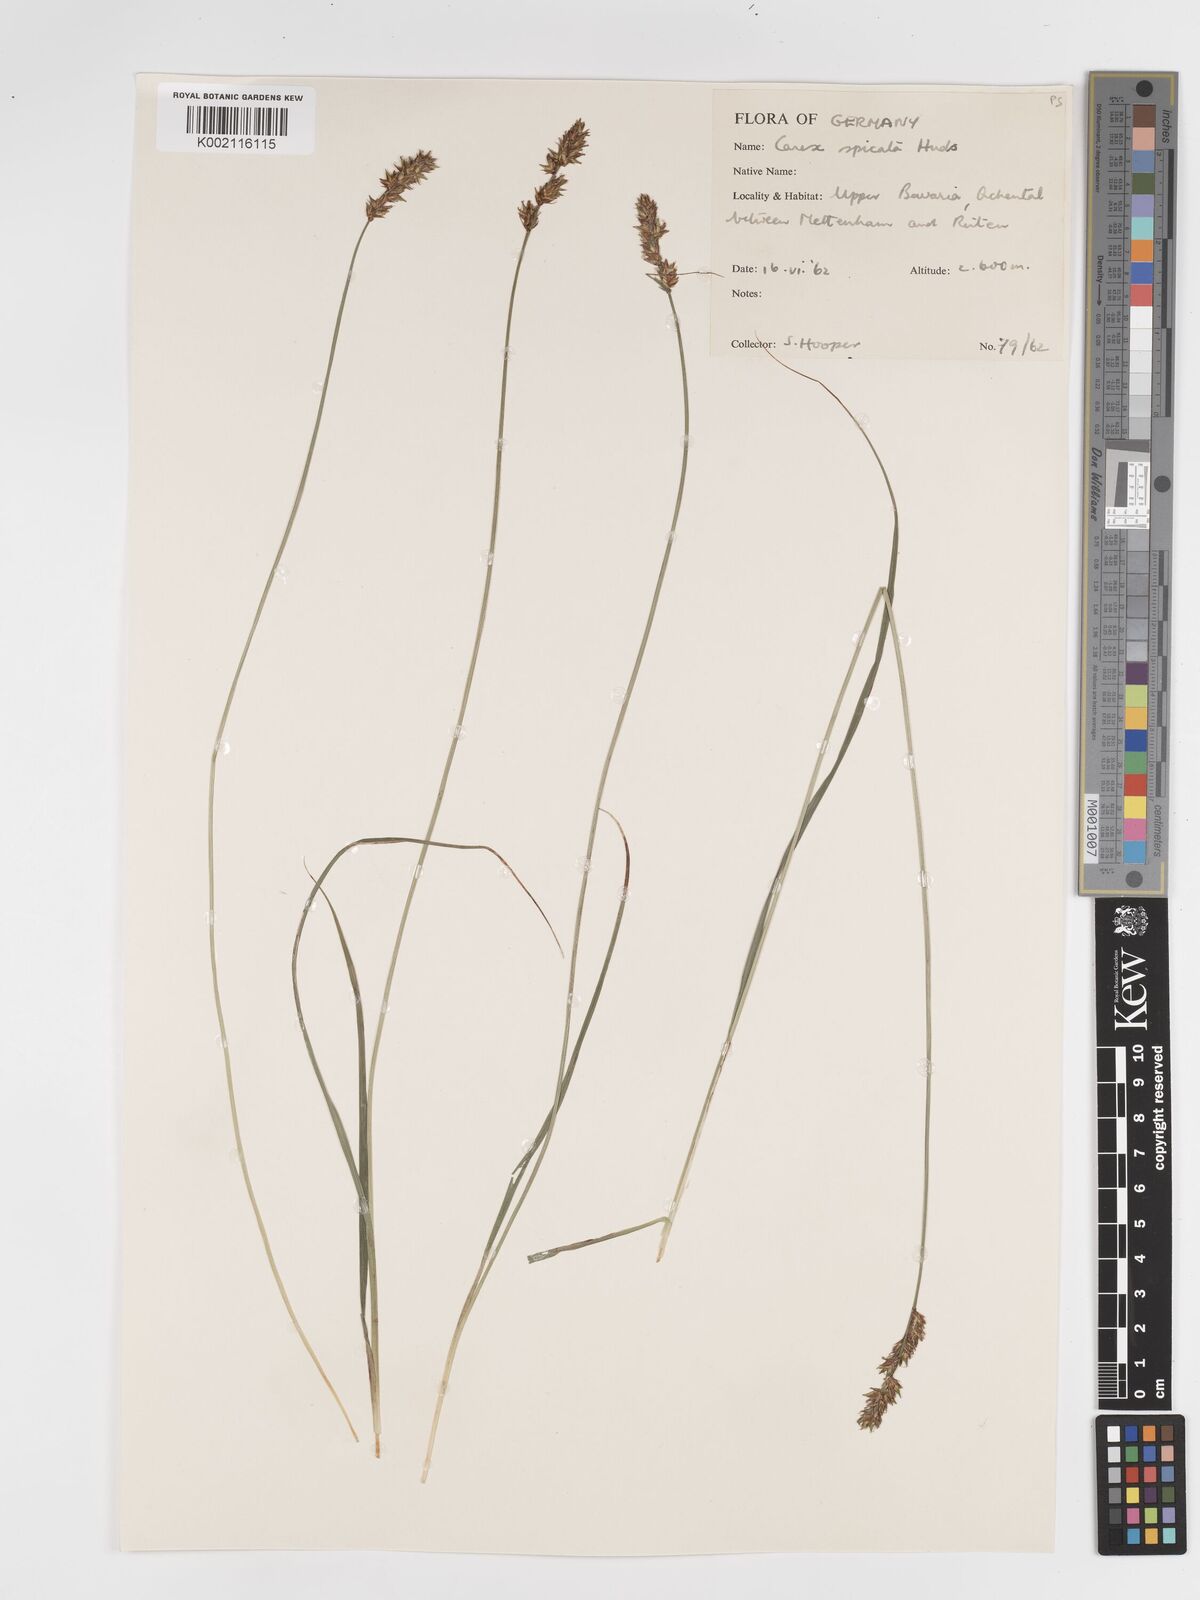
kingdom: Plantae
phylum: Tracheophyta
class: Liliopsida
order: Poales
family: Cyperaceae
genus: Carex
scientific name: Carex spicata
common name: Spiked sedge
